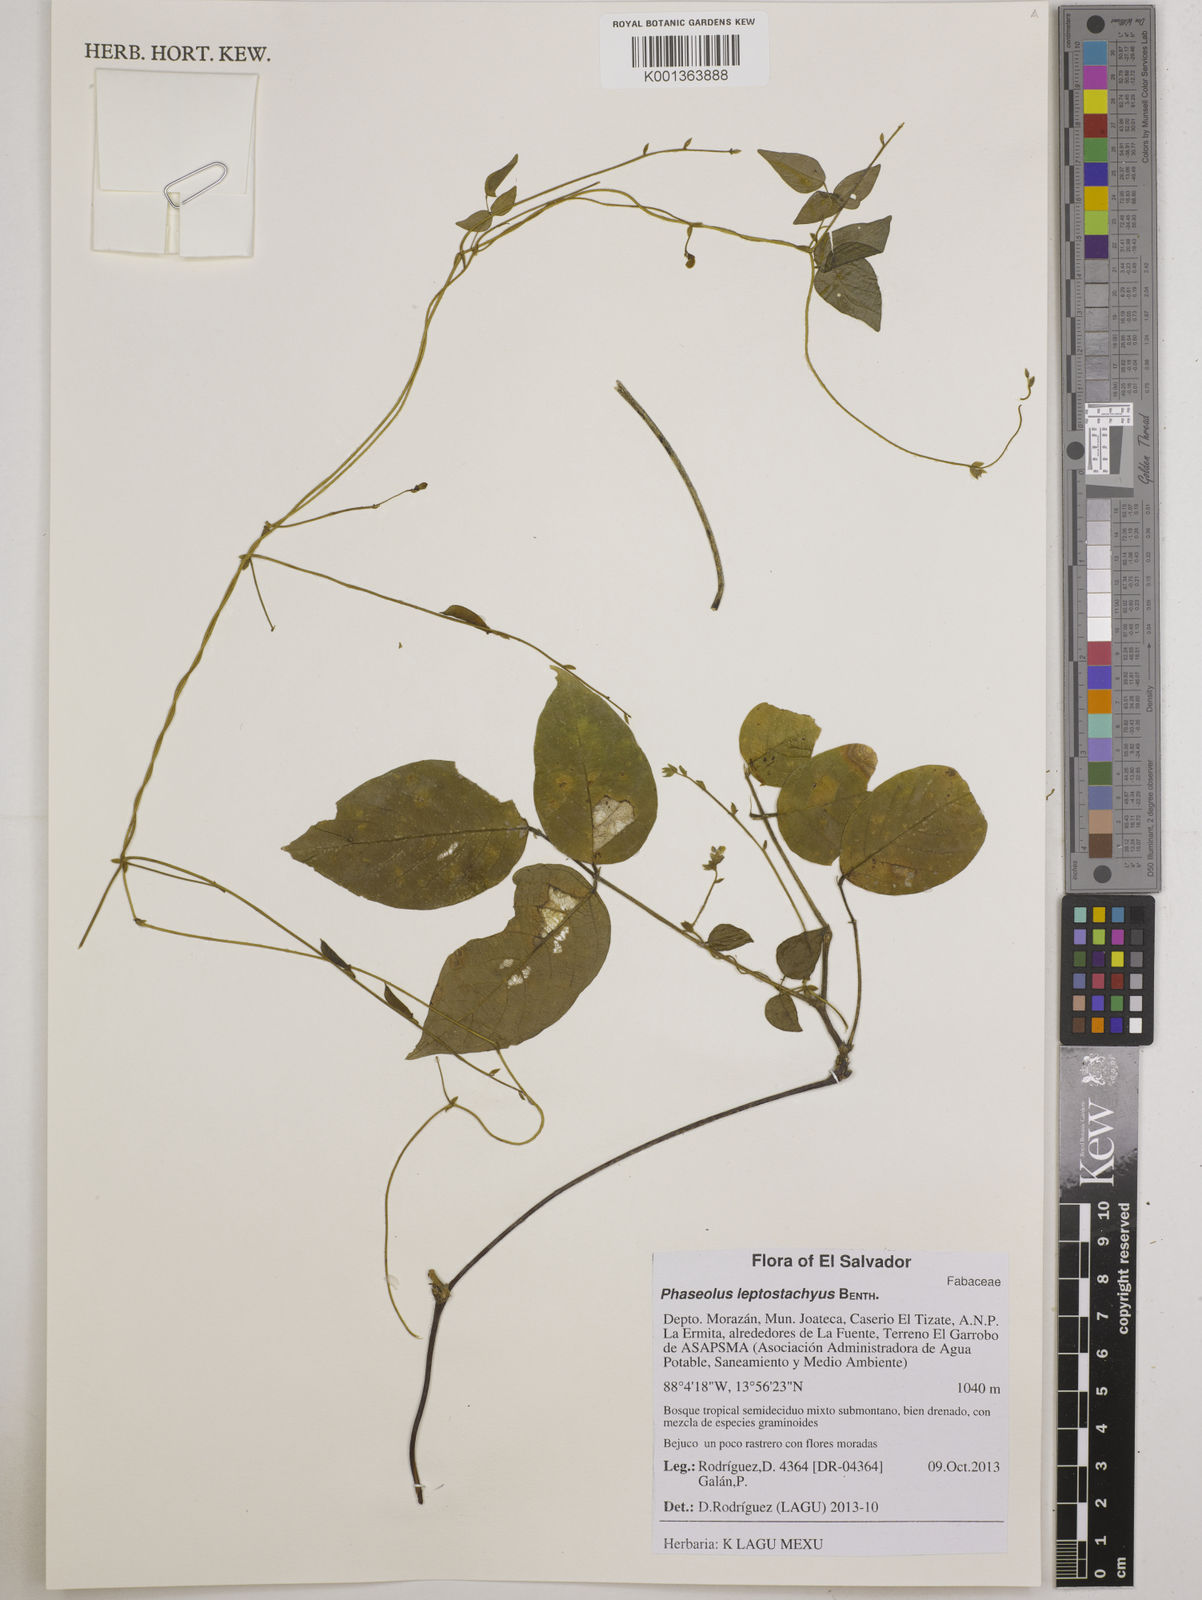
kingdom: Plantae
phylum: Tracheophyta
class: Magnoliopsida
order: Fabales
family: Fabaceae
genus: Phaseolus
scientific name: Phaseolus leptostachyus
